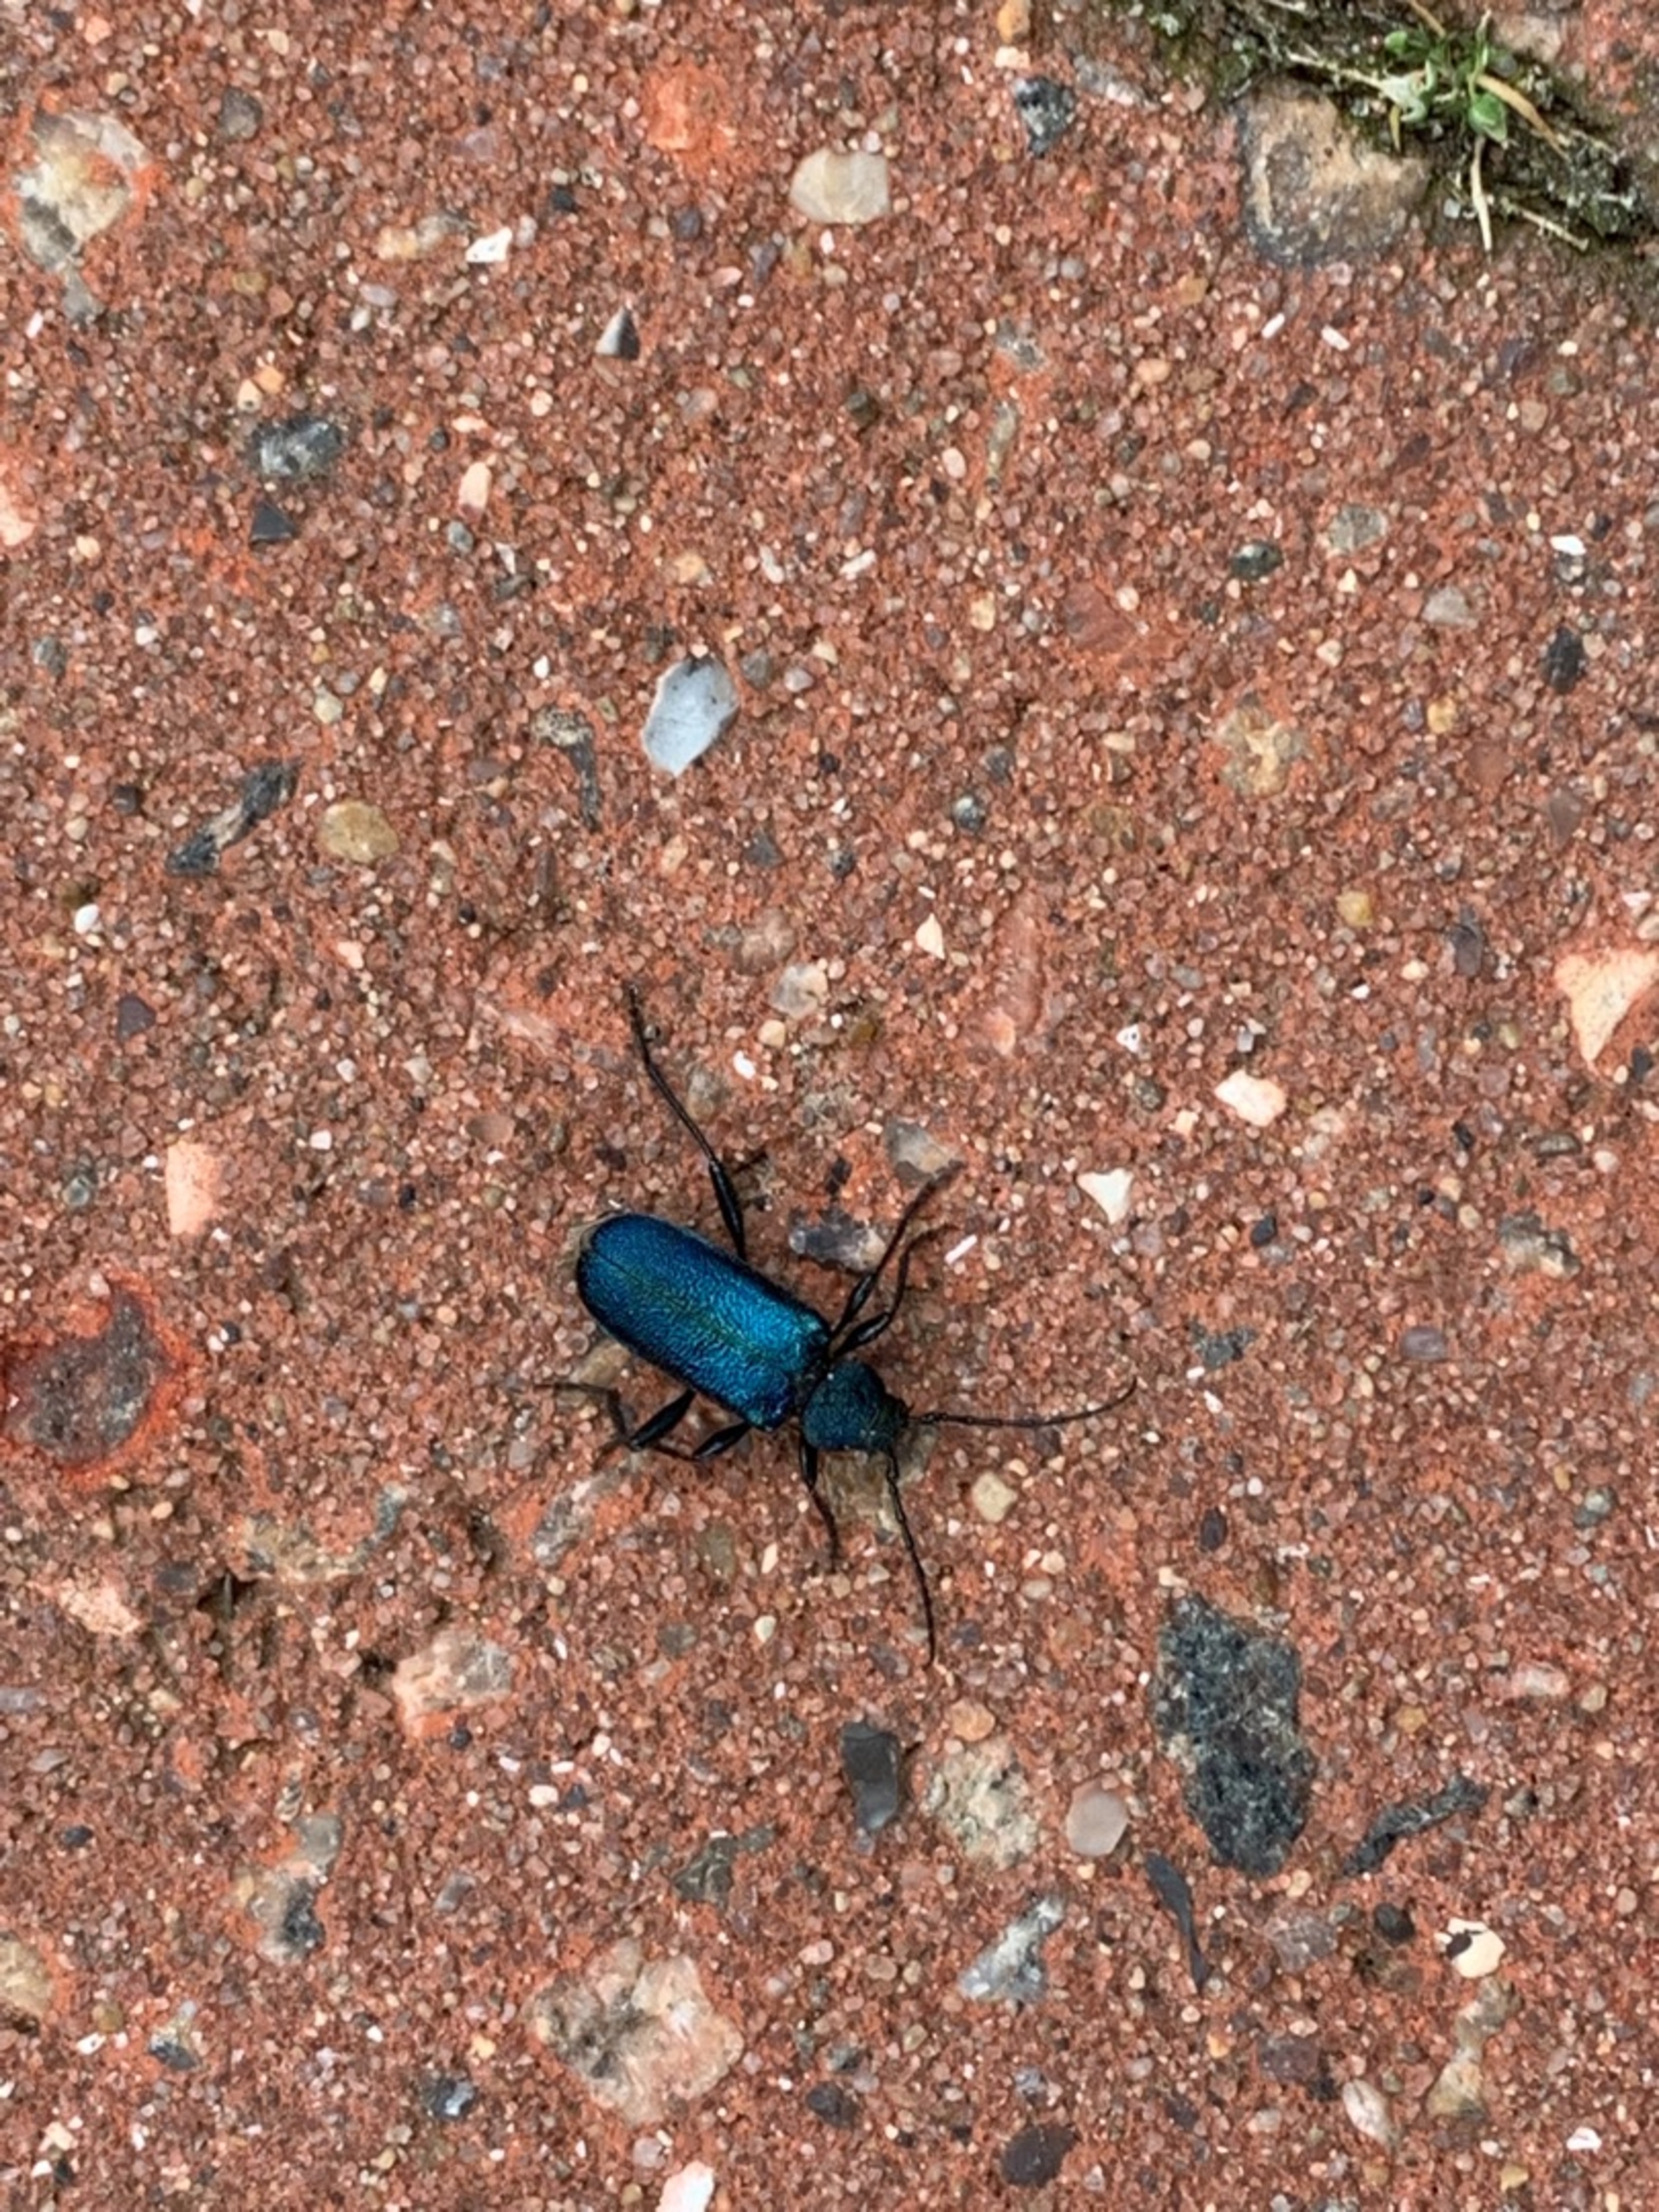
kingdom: Animalia
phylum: Arthropoda
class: Insecta
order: Coleoptera
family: Cerambycidae
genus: Agapanthia
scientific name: Agapanthia violacea
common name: Violbuk
